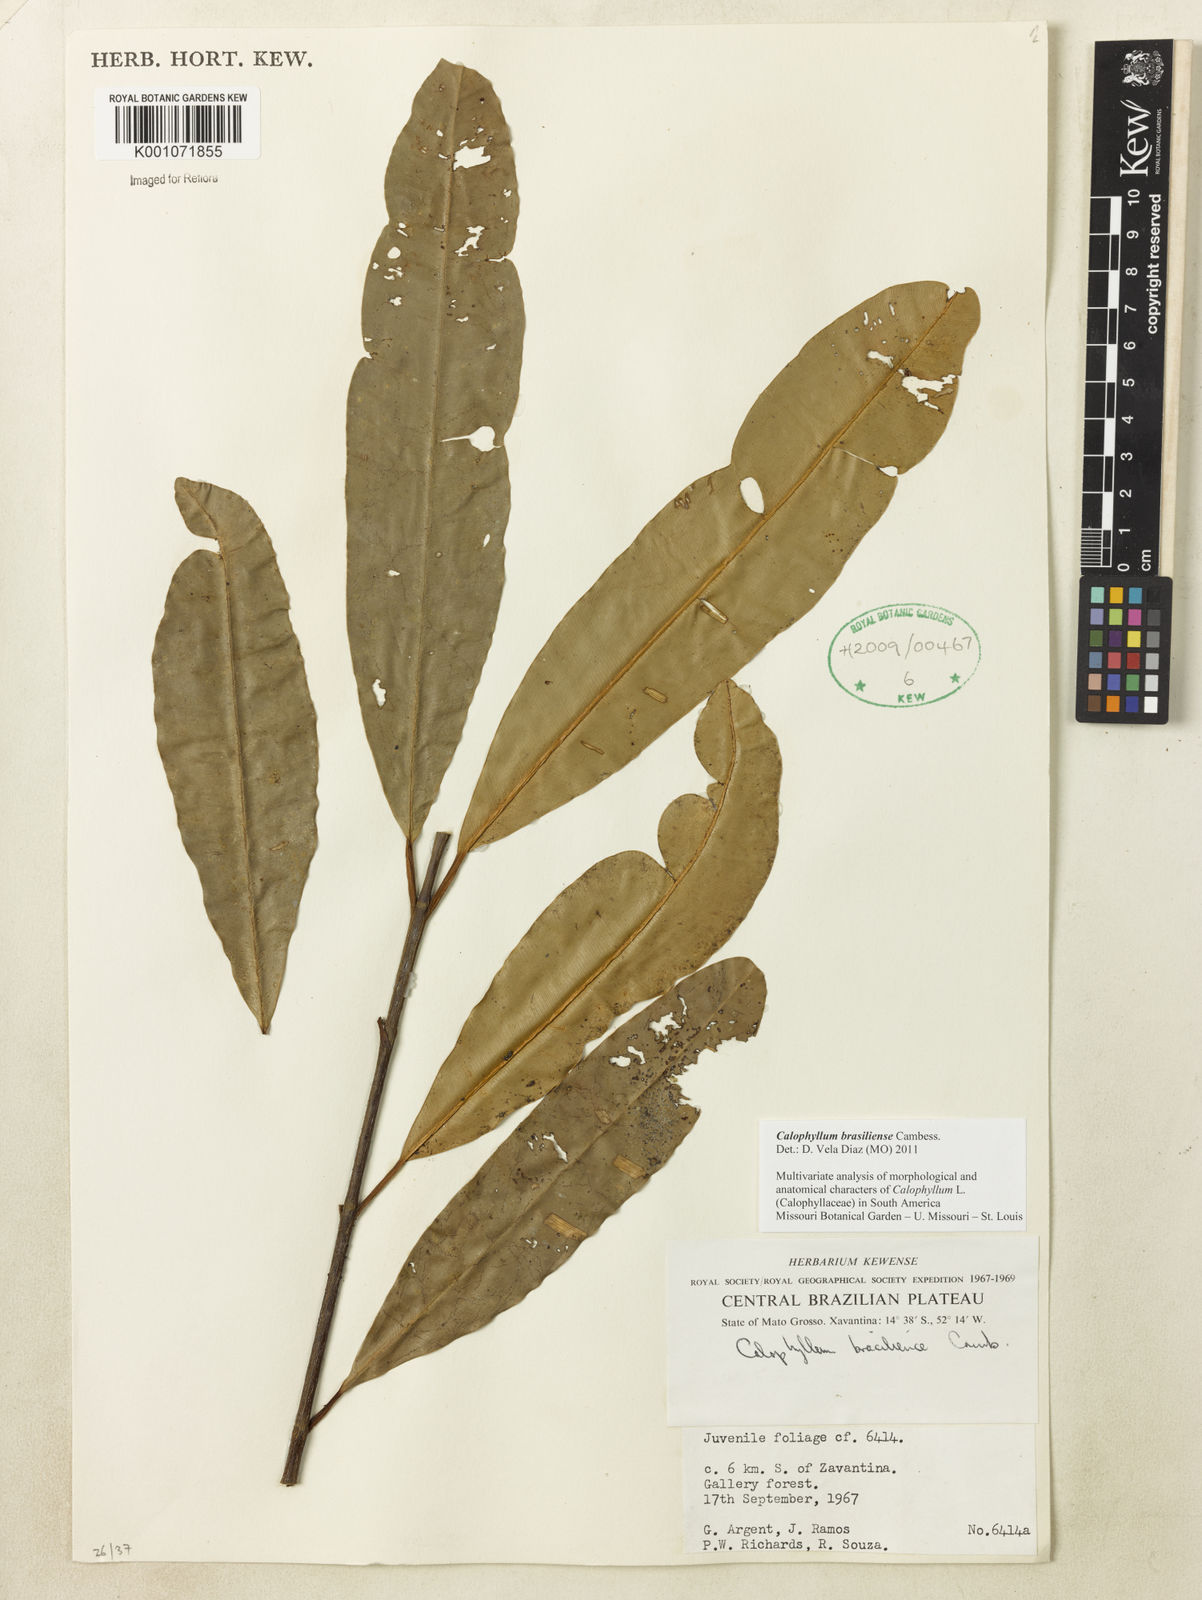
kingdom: Plantae
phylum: Tracheophyta
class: Magnoliopsida
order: Malpighiales
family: Calophyllaceae
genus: Calophyllum
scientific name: Calophyllum brasiliense
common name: Santa maria
